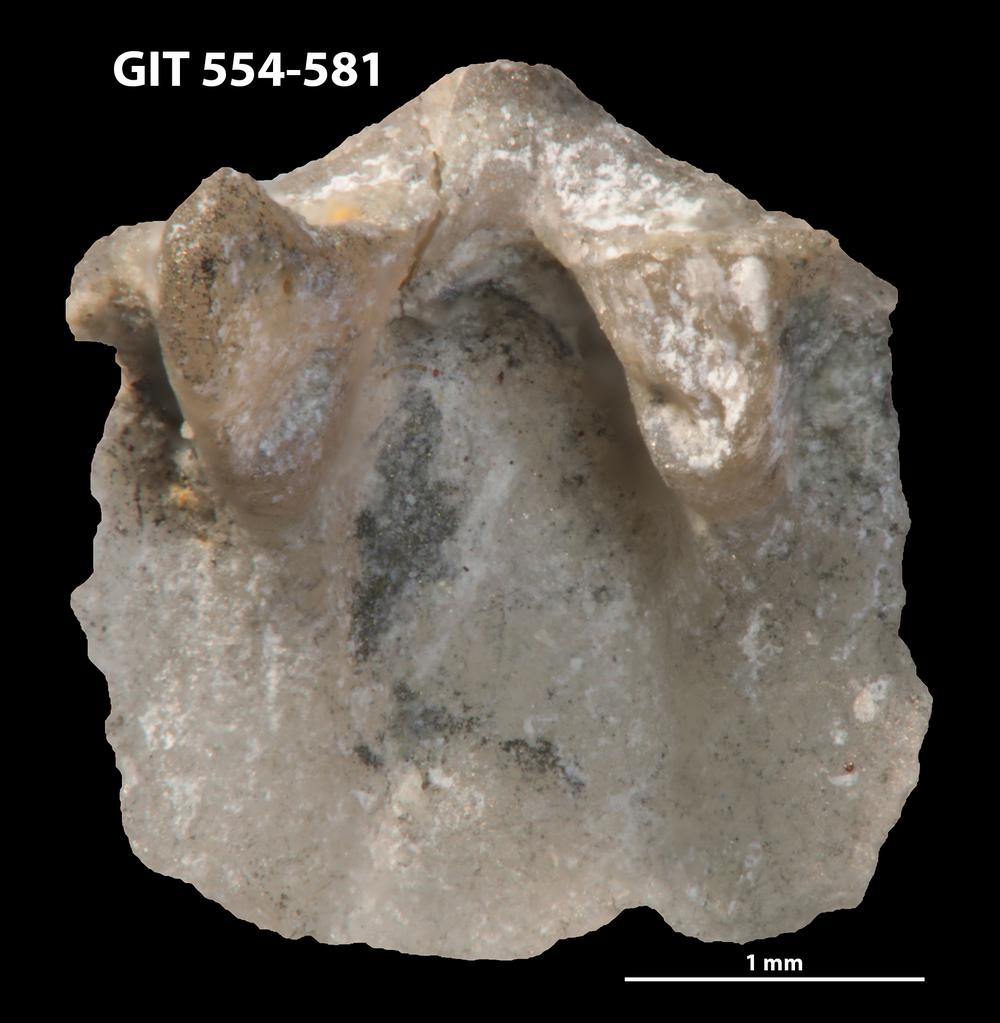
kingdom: Animalia
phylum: Brachiopoda
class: Rhynchonellata
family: Dalmanellidae
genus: Isorthis
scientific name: Isorthis parvulus
